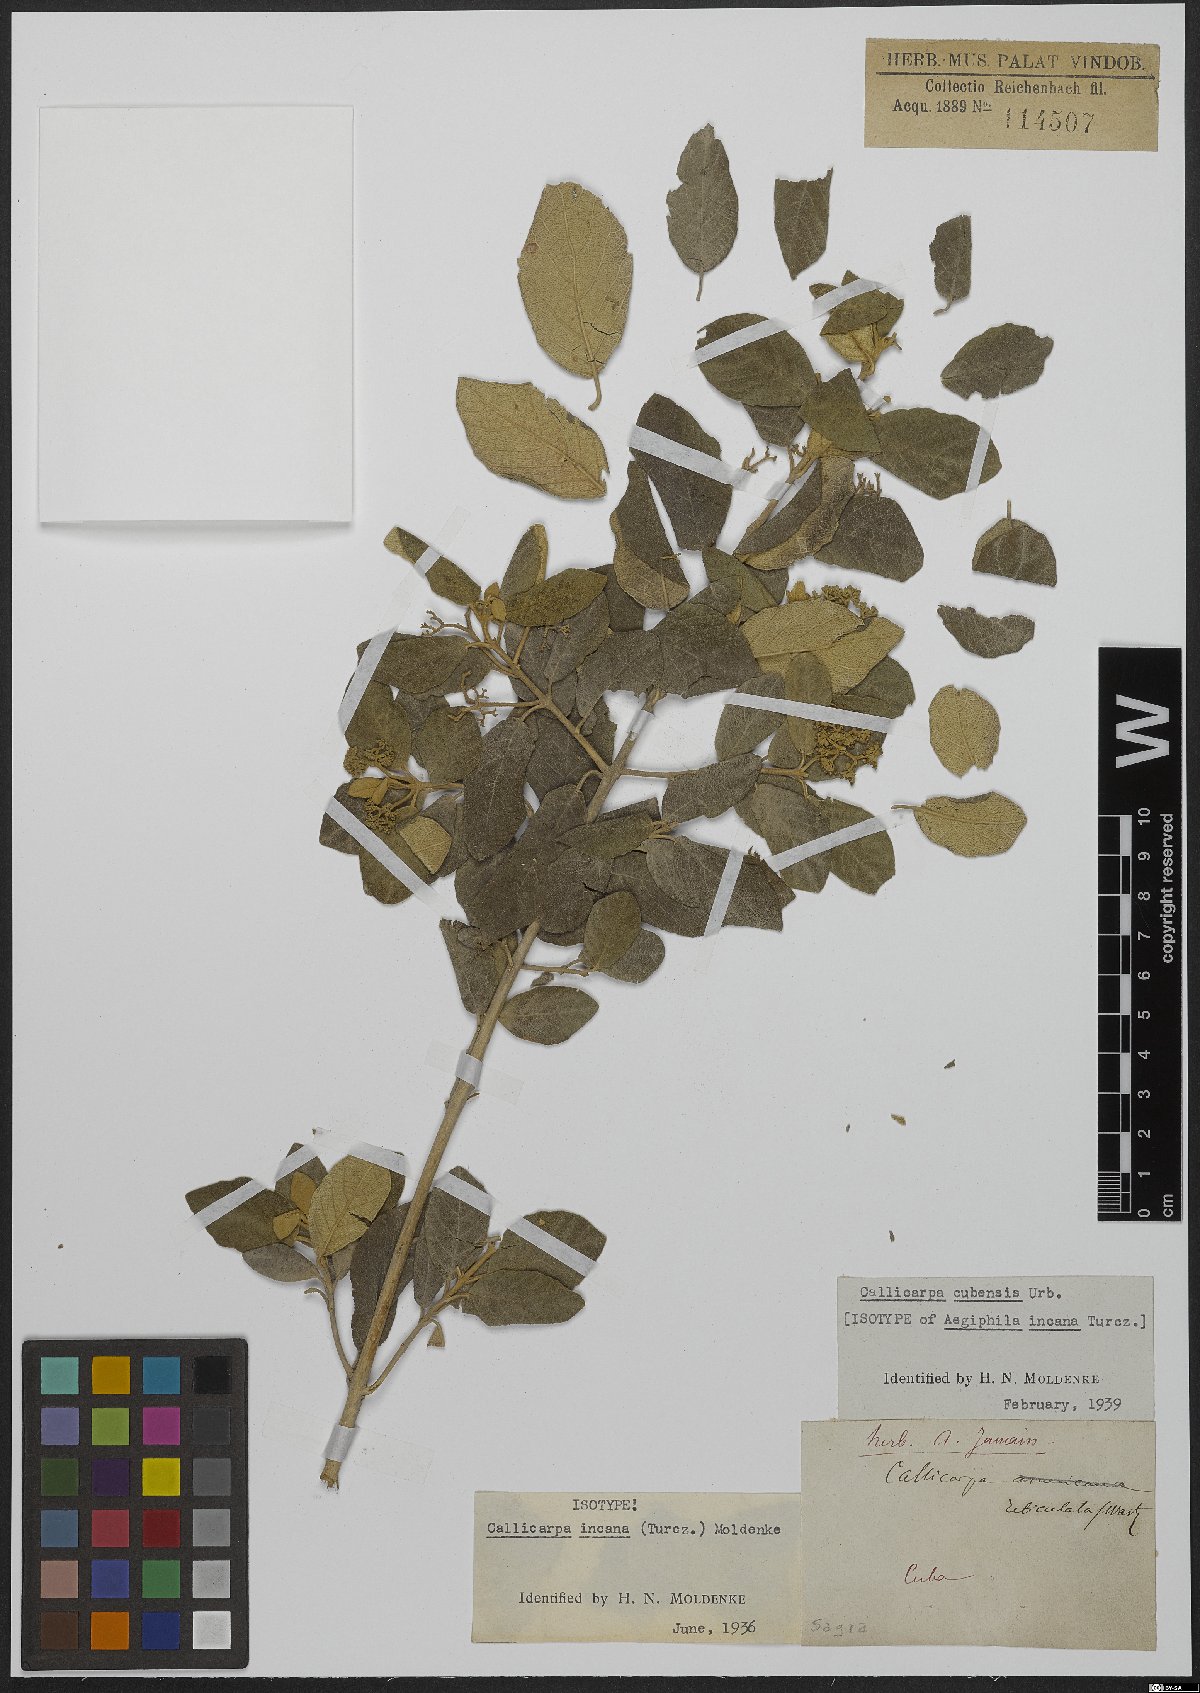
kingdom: Plantae
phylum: Tracheophyta
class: Magnoliopsida
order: Lamiales
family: Lamiaceae
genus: Callicarpa
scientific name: Callicarpa cubensis
